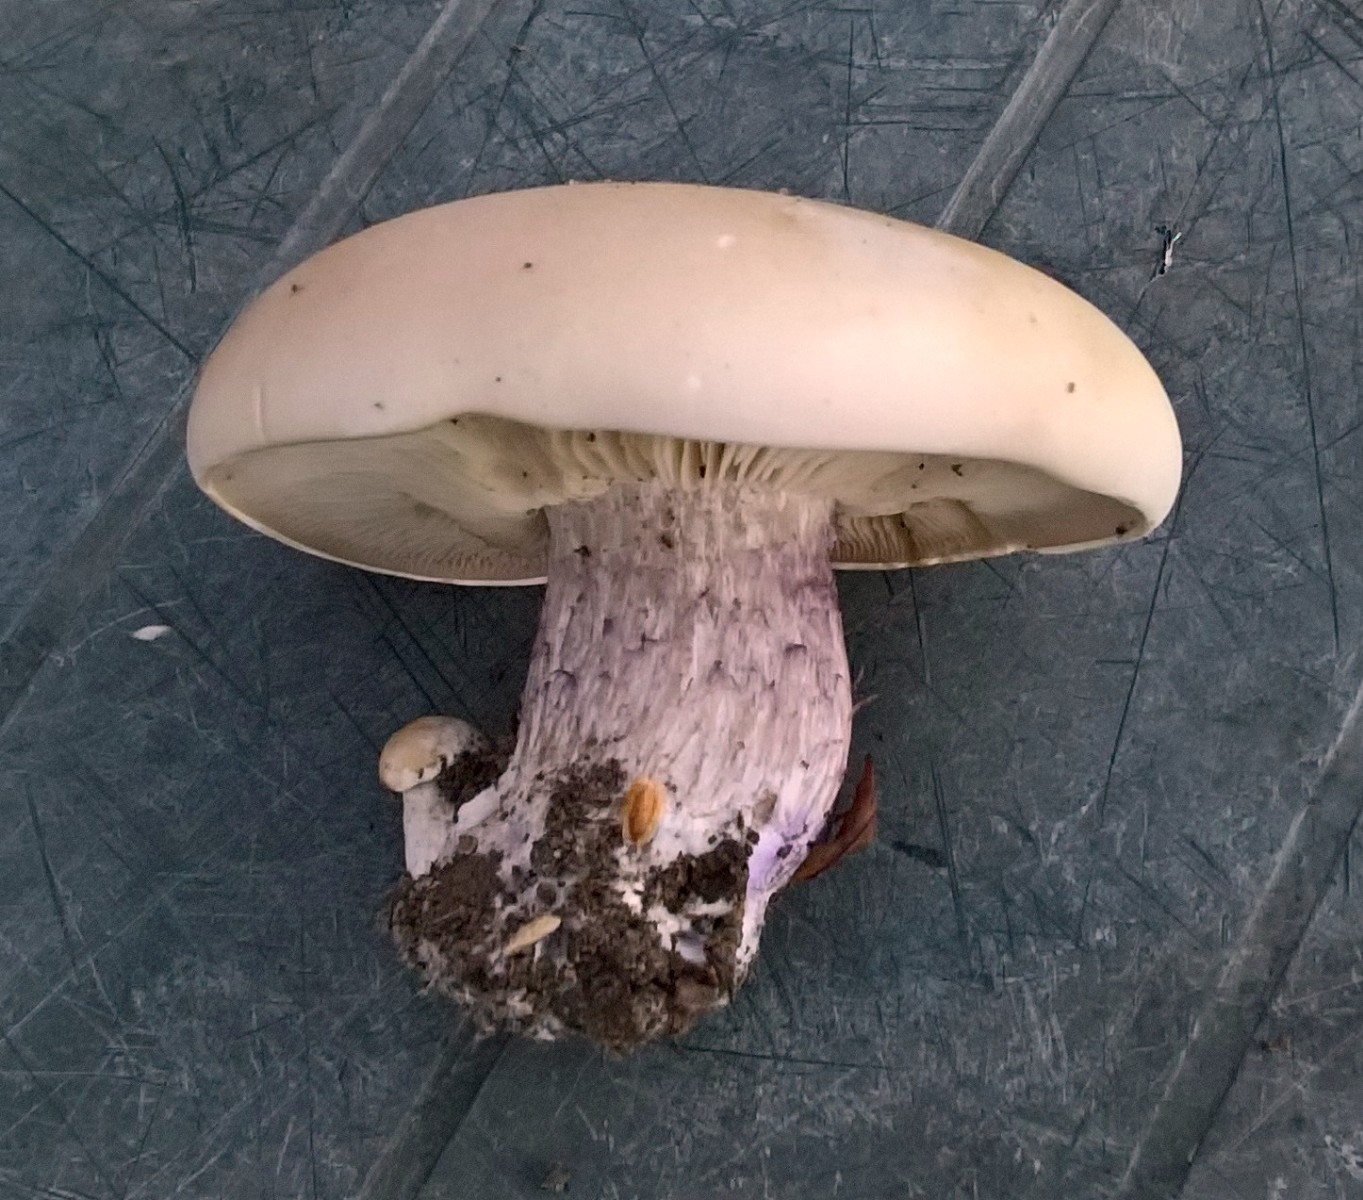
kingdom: Fungi
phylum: Basidiomycota
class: Agaricomycetes
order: Agaricales
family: Tricholomataceae
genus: Lepista
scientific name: Lepista personata
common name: bleg hekseringshat
